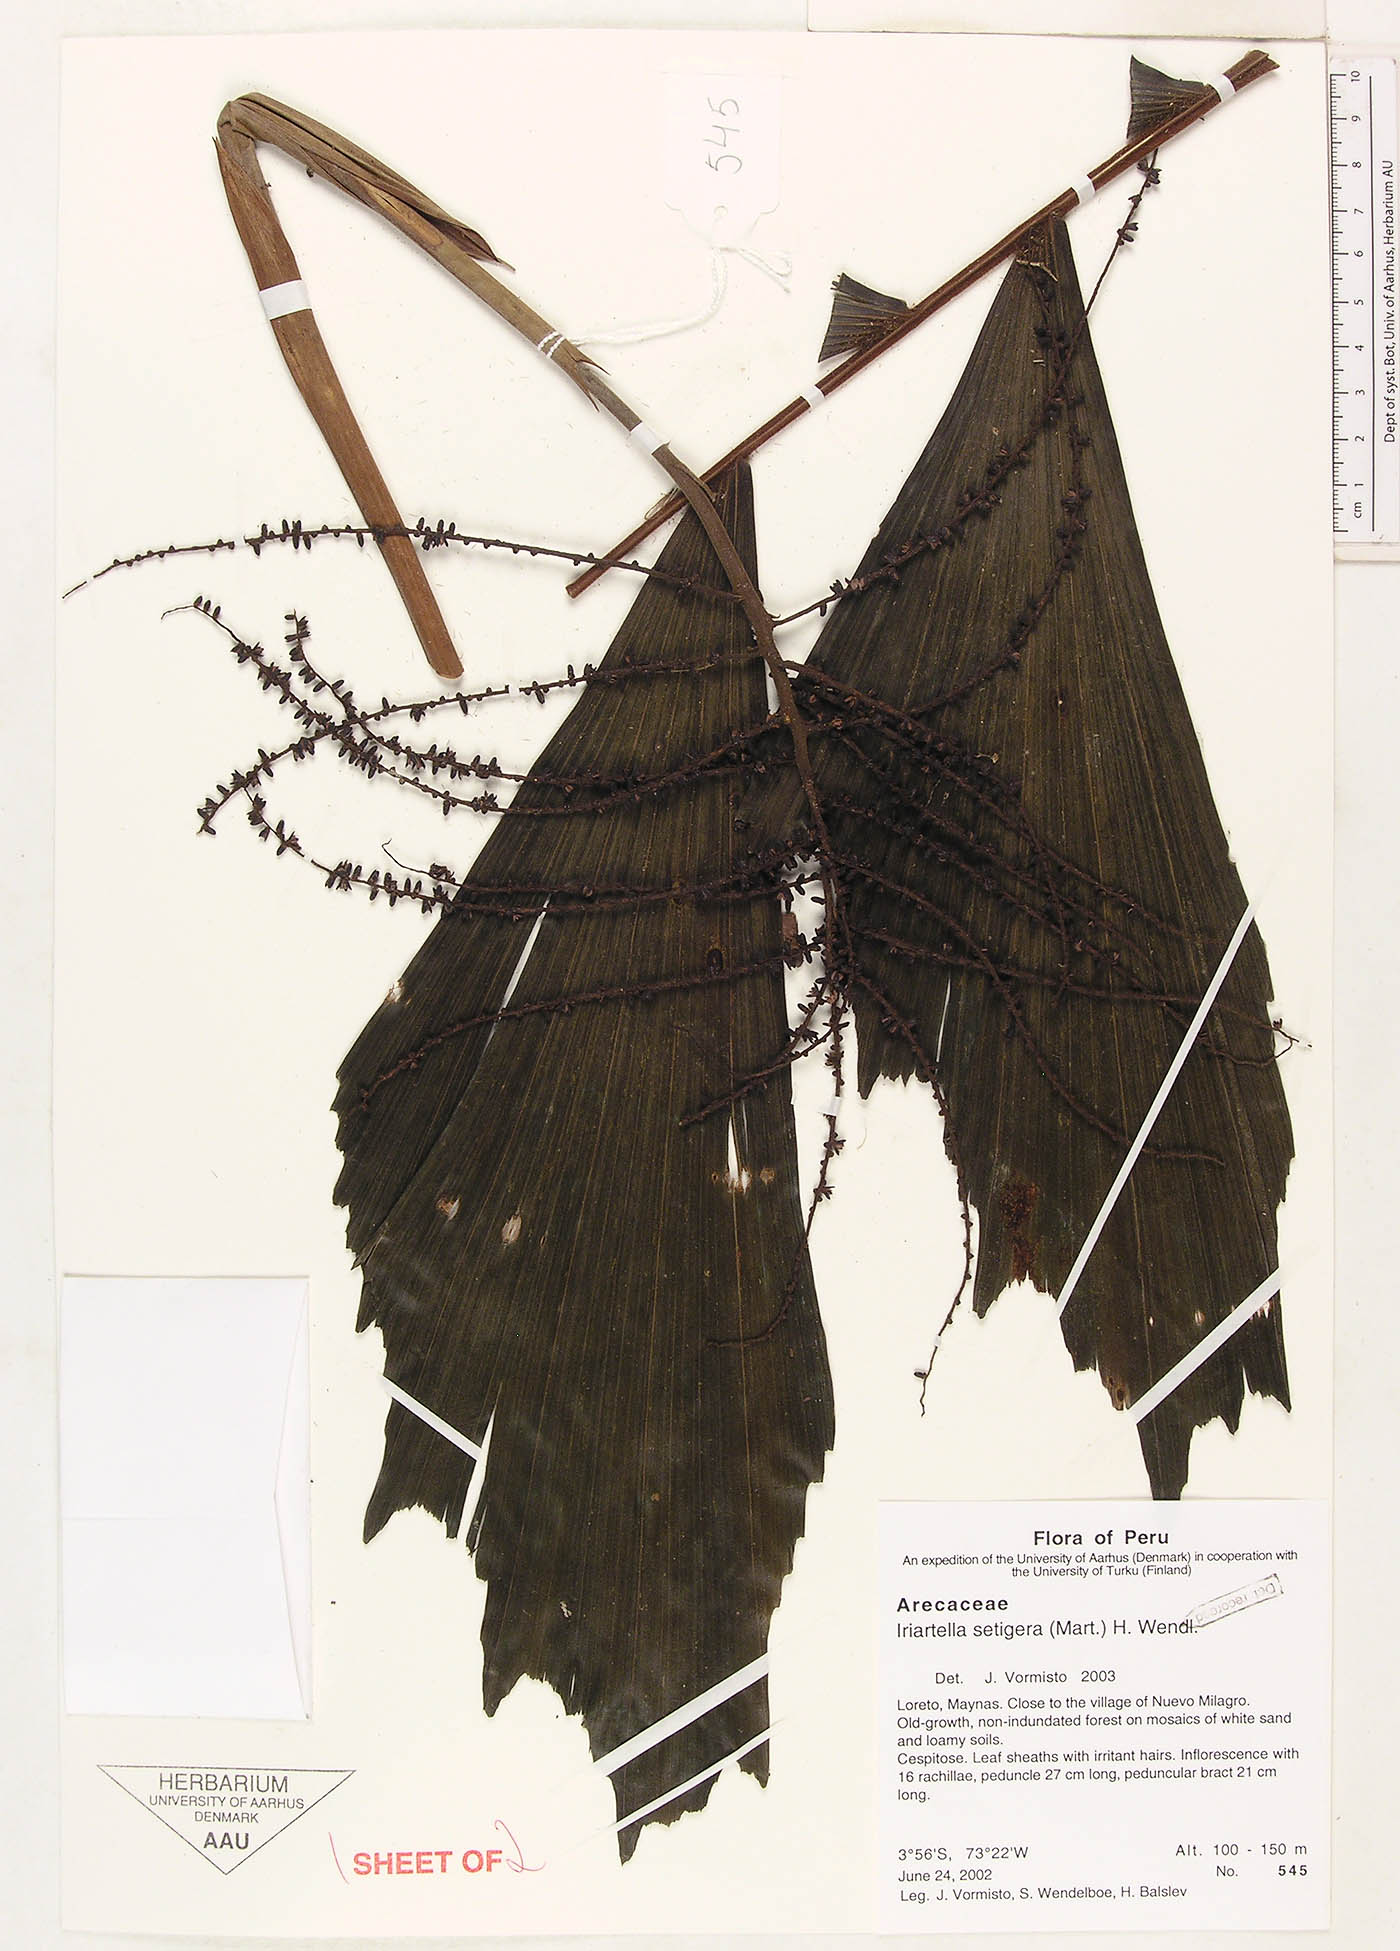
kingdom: Plantae
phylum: Tracheophyta
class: Liliopsida
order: Arecales
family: Arecaceae
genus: Iriartella
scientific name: Iriartella setigera
